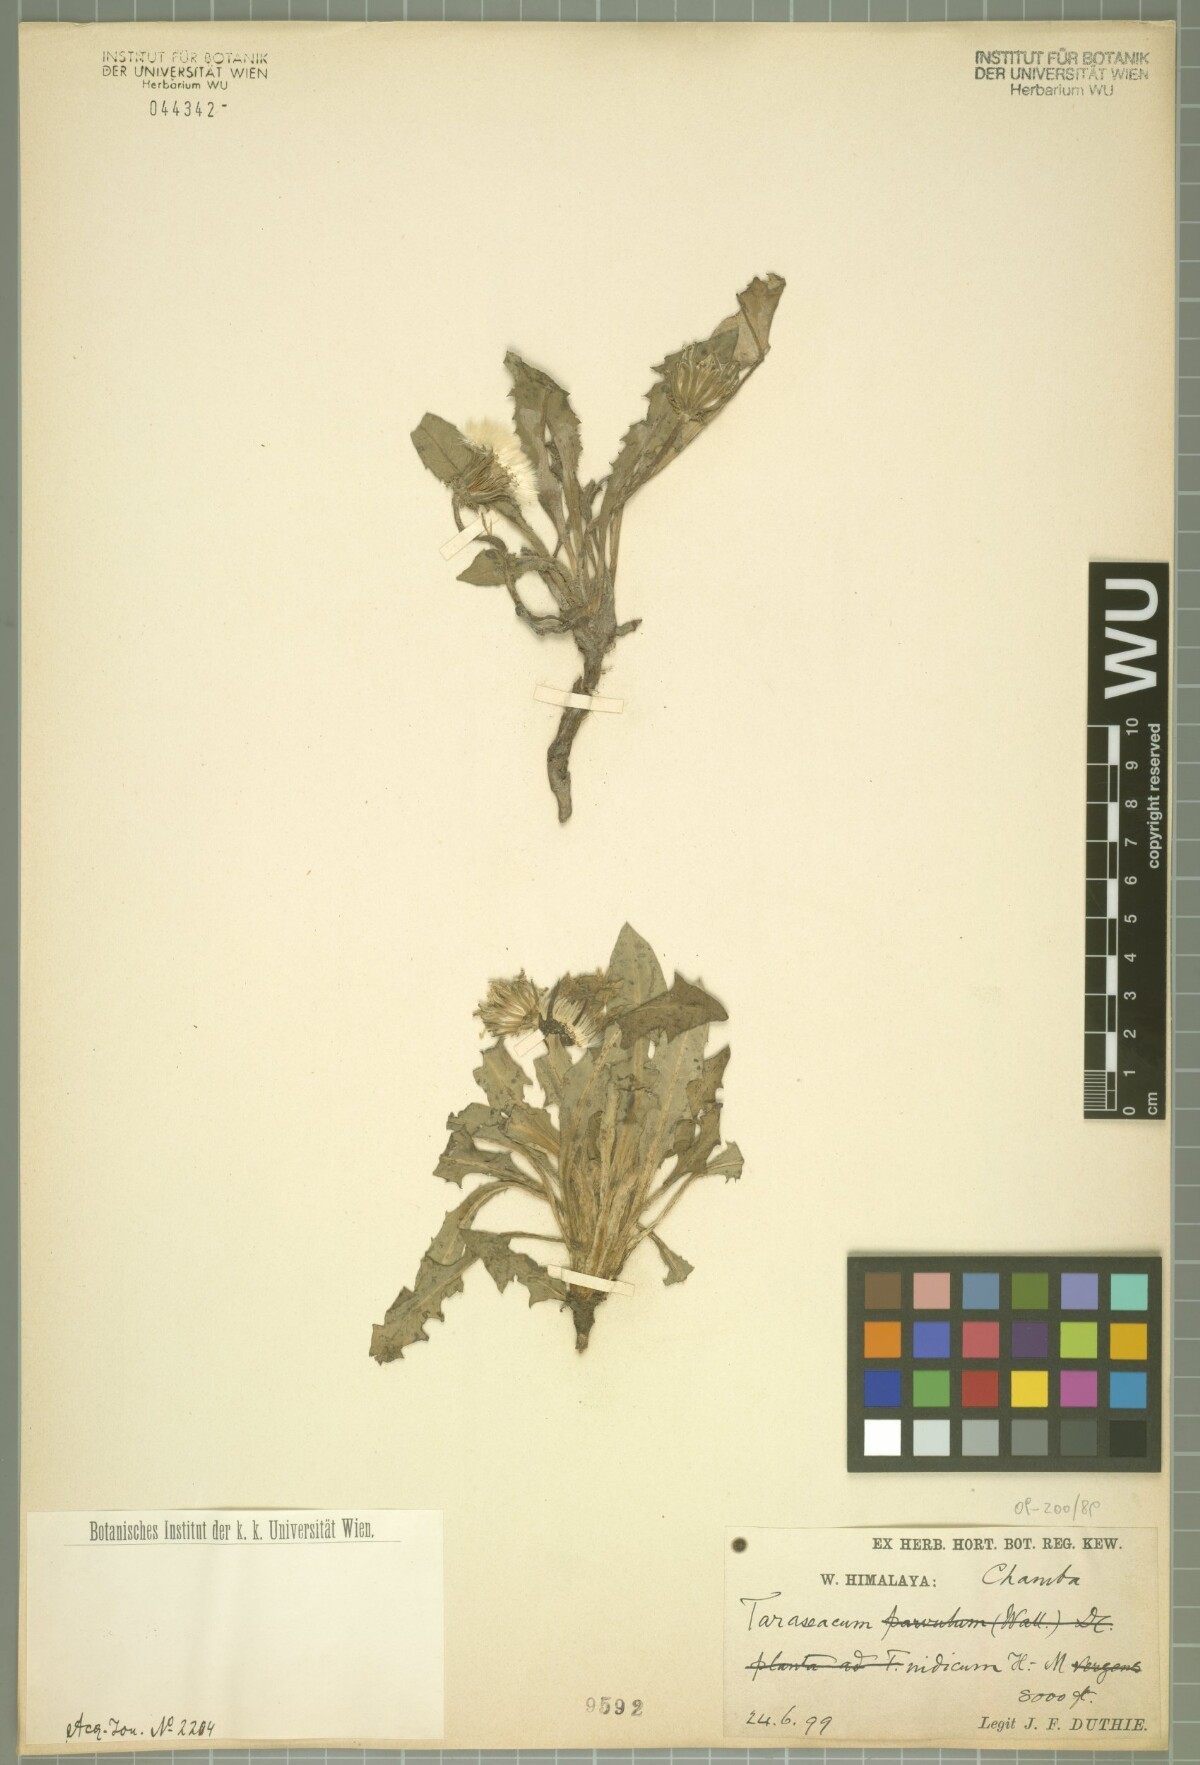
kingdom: Plantae
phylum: Tracheophyta
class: Magnoliopsida
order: Asterales
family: Asteraceae
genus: Taraxacum
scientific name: Taraxacum indicum
